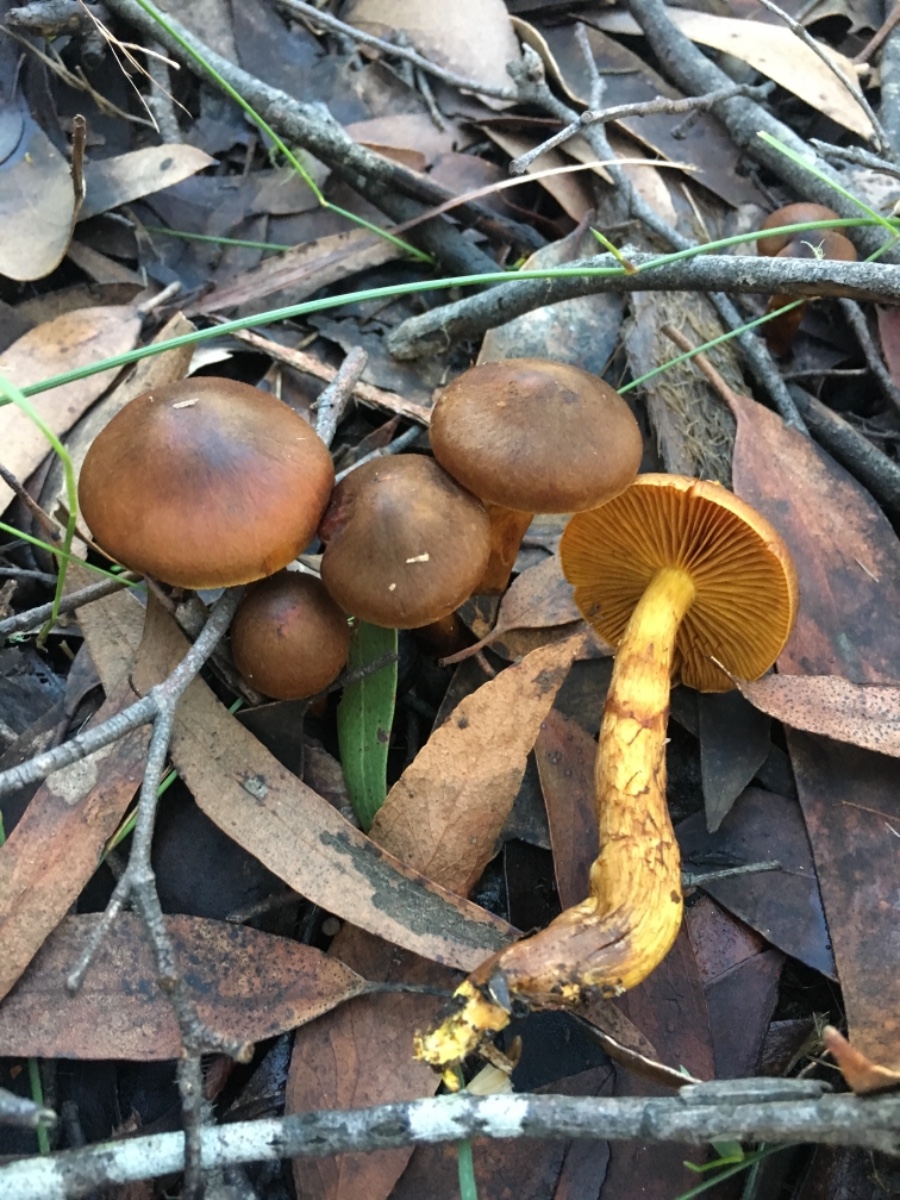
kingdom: Fungi
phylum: Basidiomycota
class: Agaricomycetes
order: Agaricales
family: Cortinariaceae
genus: Cortinarius
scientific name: Cortinarius clelandii
